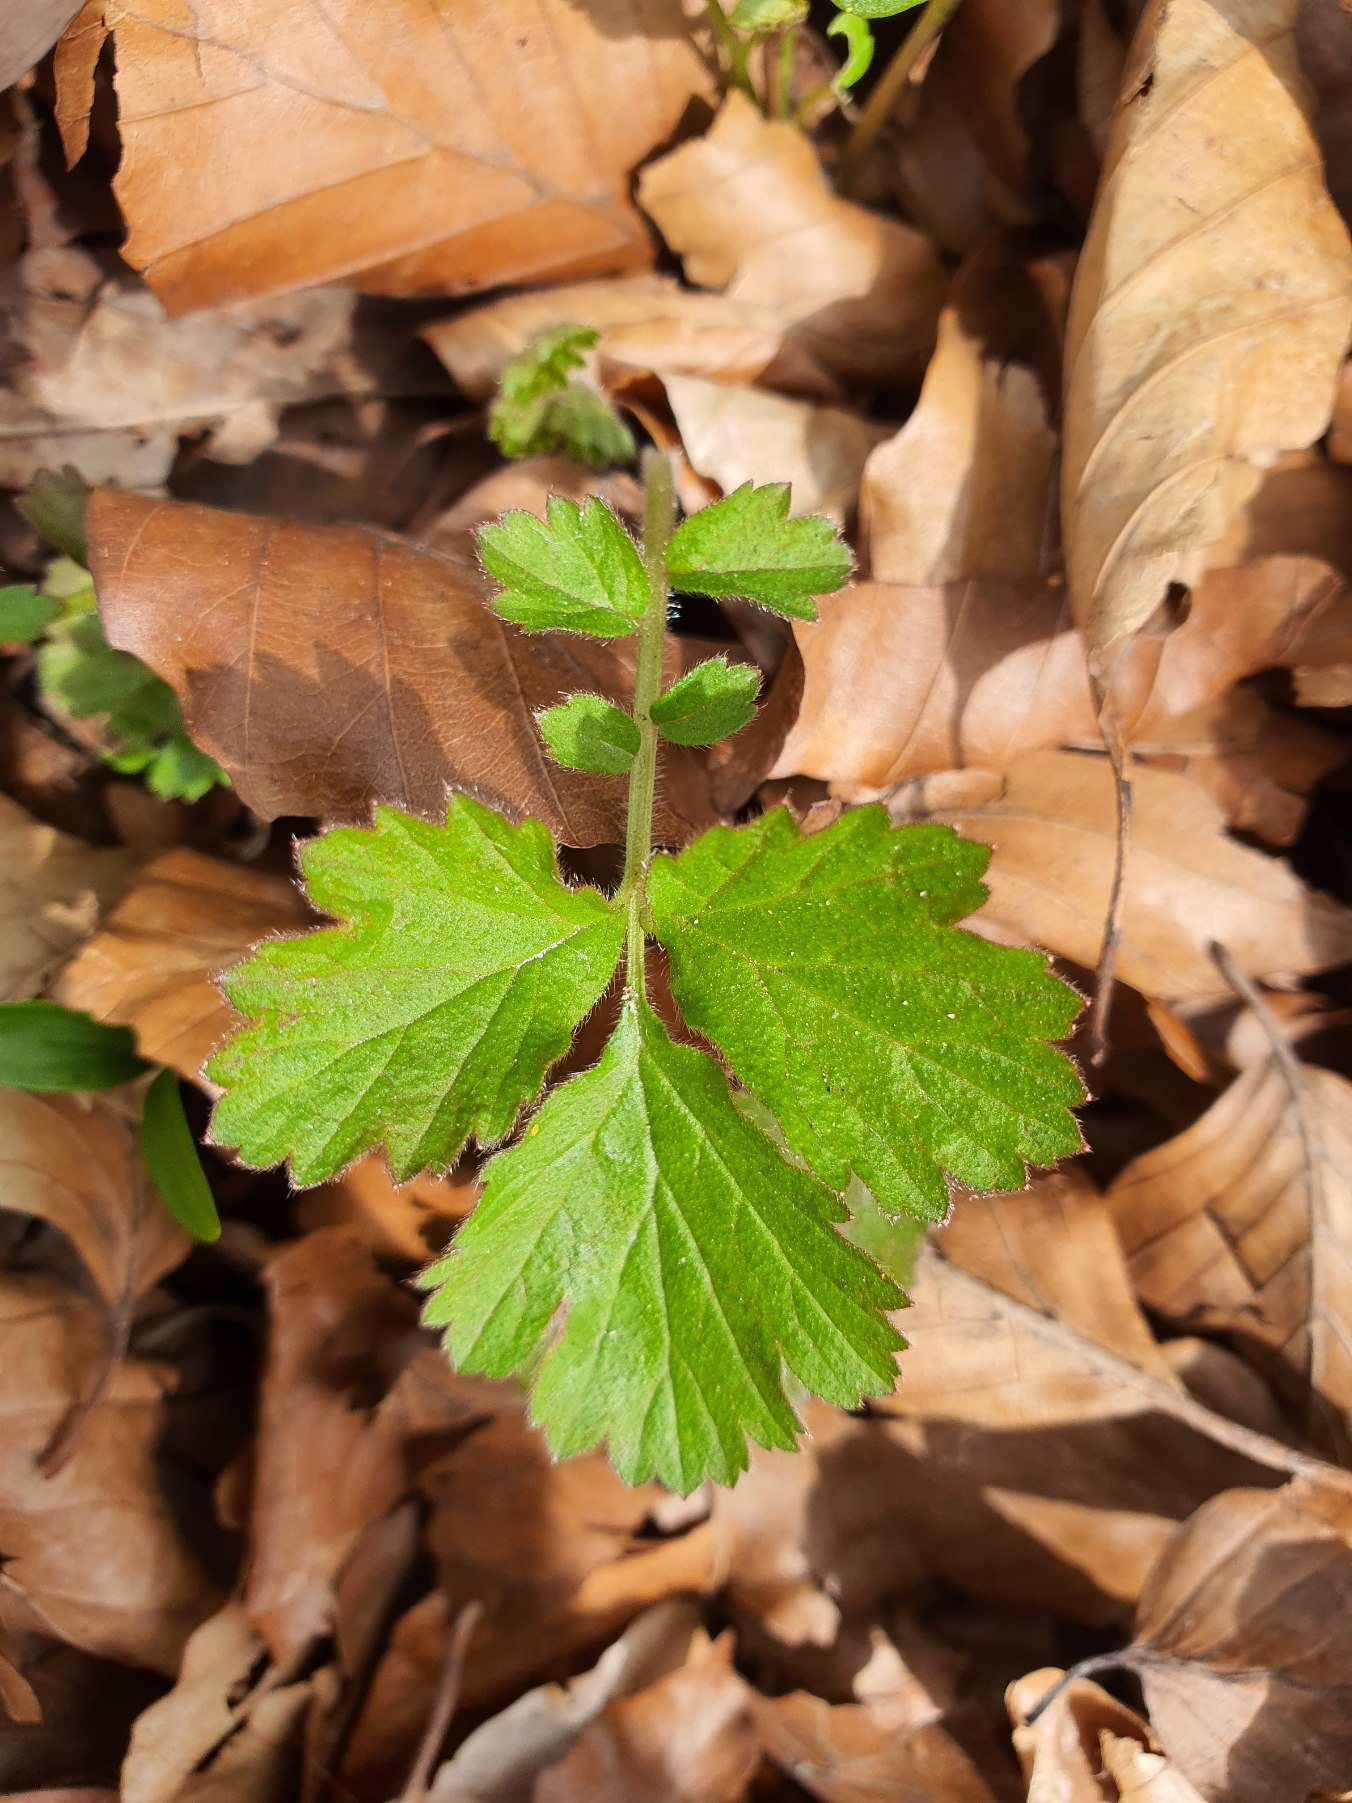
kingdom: Plantae
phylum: Tracheophyta
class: Magnoliopsida
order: Rosales
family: Rosaceae
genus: Geum
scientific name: Geum urbanum
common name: Feber-nellikerod
